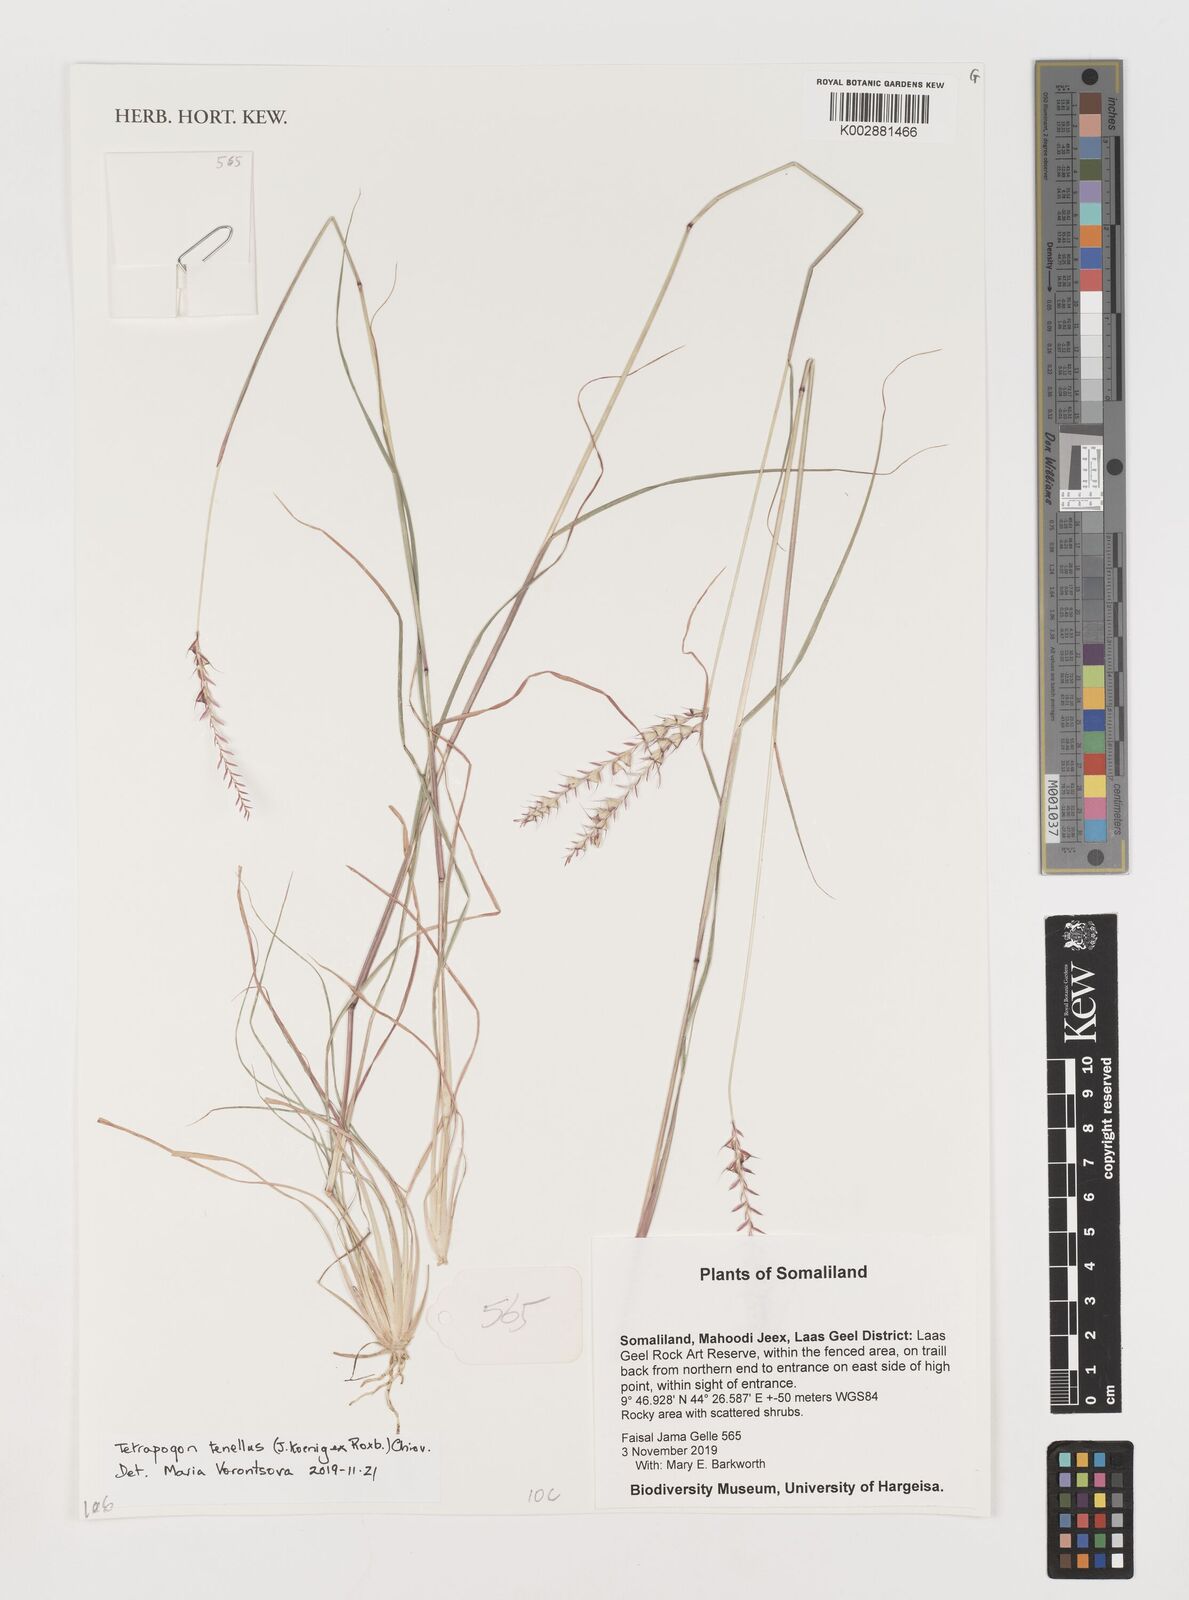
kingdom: Plantae
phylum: Tracheophyta
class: Liliopsida
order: Poales
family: Poaceae
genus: Tetrapogon
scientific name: Tetrapogon tenellus
